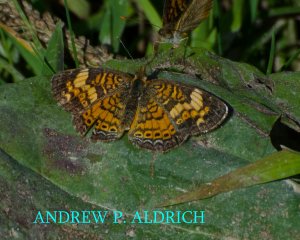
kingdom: Animalia
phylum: Arthropoda
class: Insecta
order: Lepidoptera
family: Nymphalidae
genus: Phyciodes
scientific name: Phyciodes
